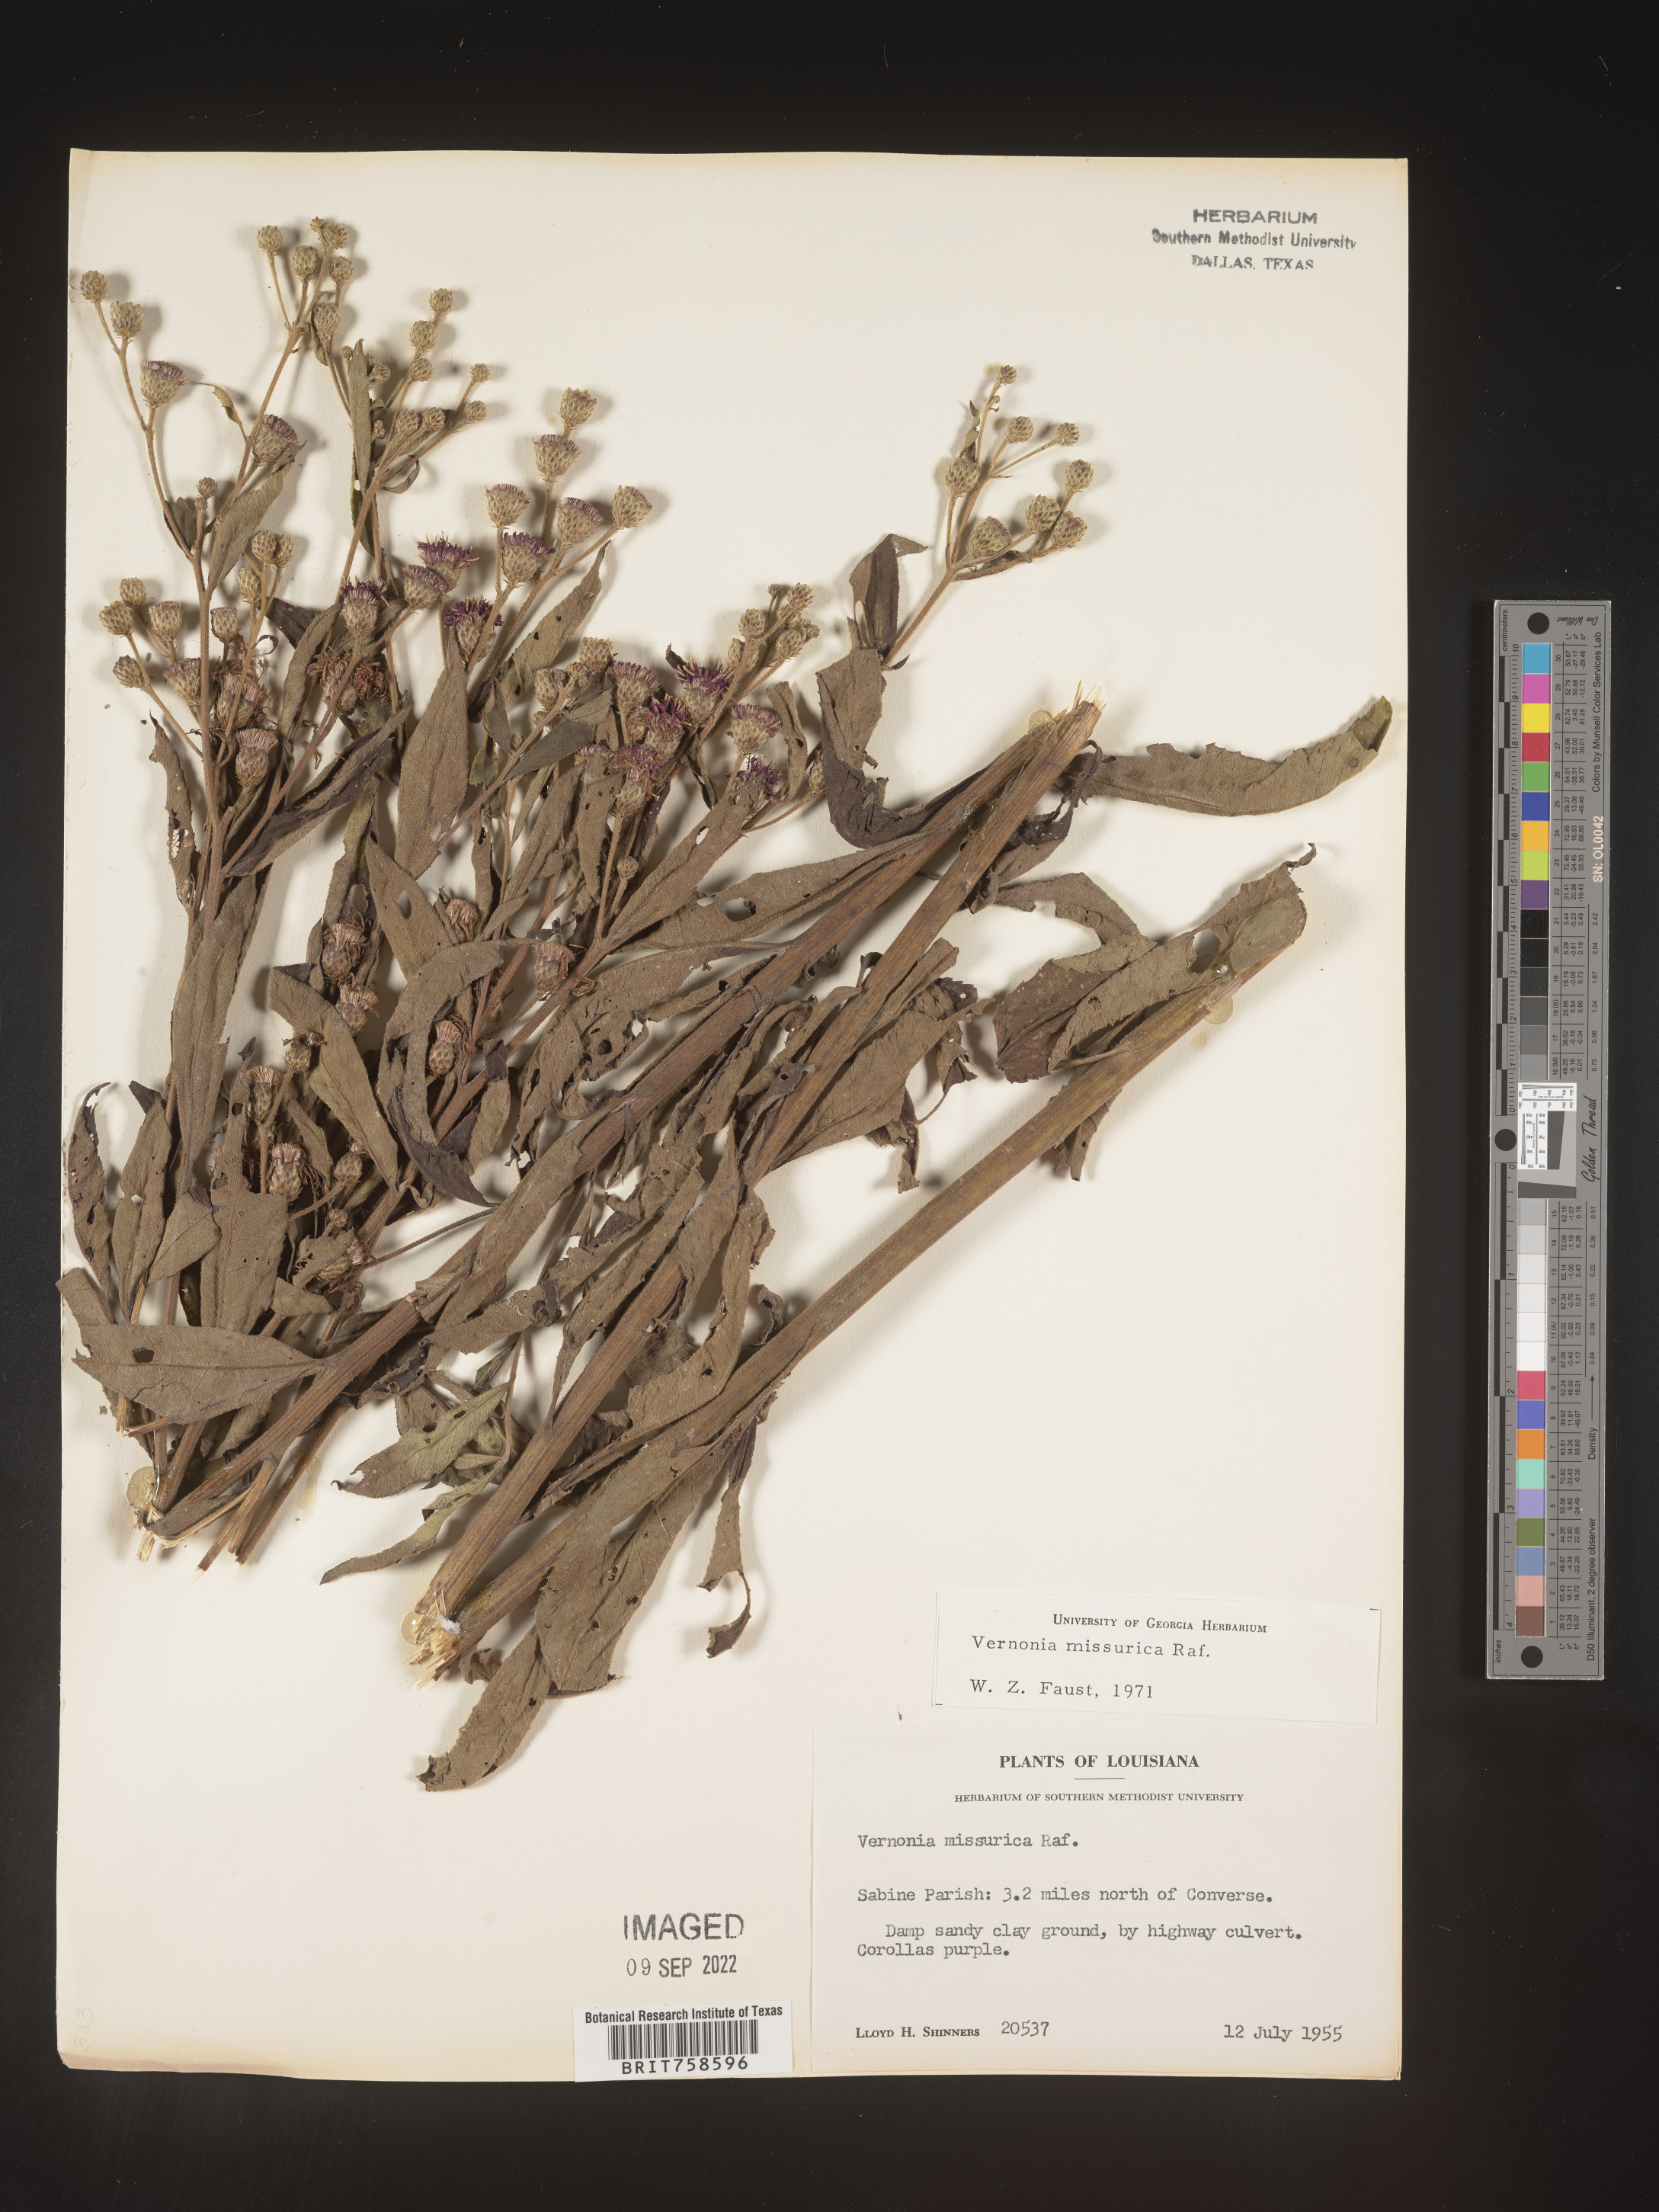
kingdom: Plantae
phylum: Tracheophyta
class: Magnoliopsida
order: Asterales
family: Asteraceae
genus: Vernonia
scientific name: Vernonia missurica
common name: Missouri ironweed
